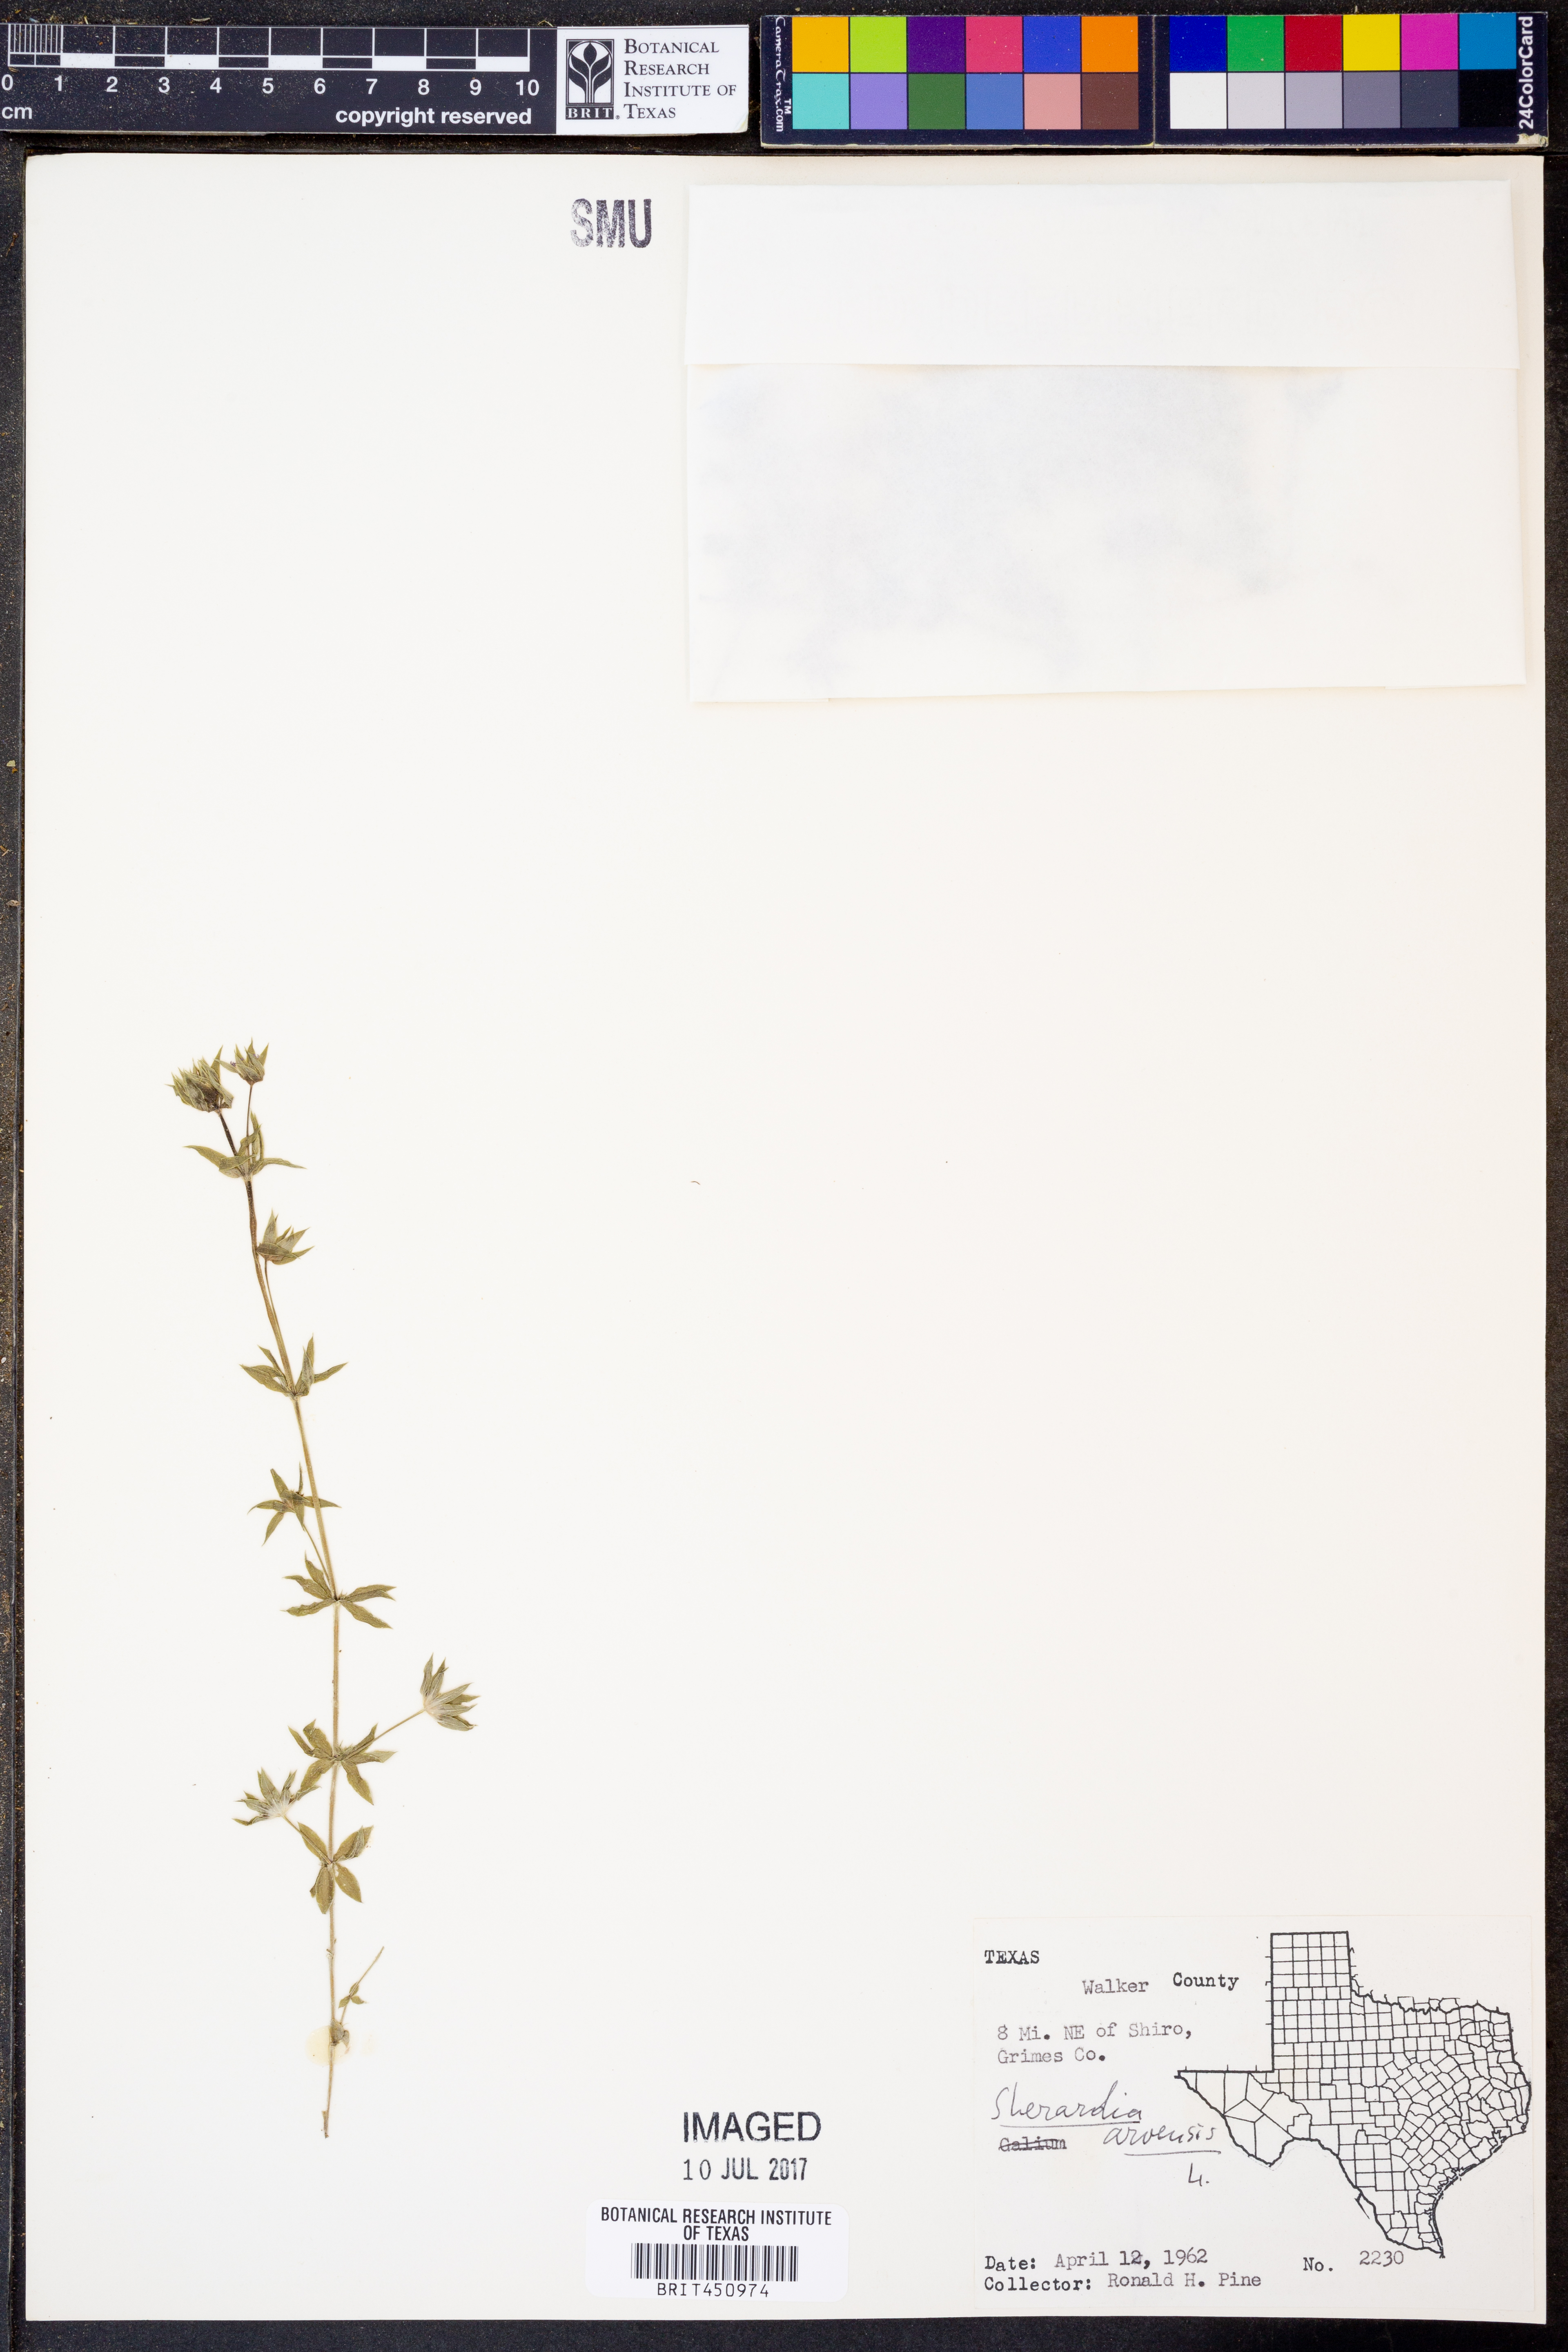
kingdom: Plantae
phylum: Tracheophyta
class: Magnoliopsida
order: Gentianales
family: Rubiaceae
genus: Sherardia
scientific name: Sherardia arvensis
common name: Field madder
